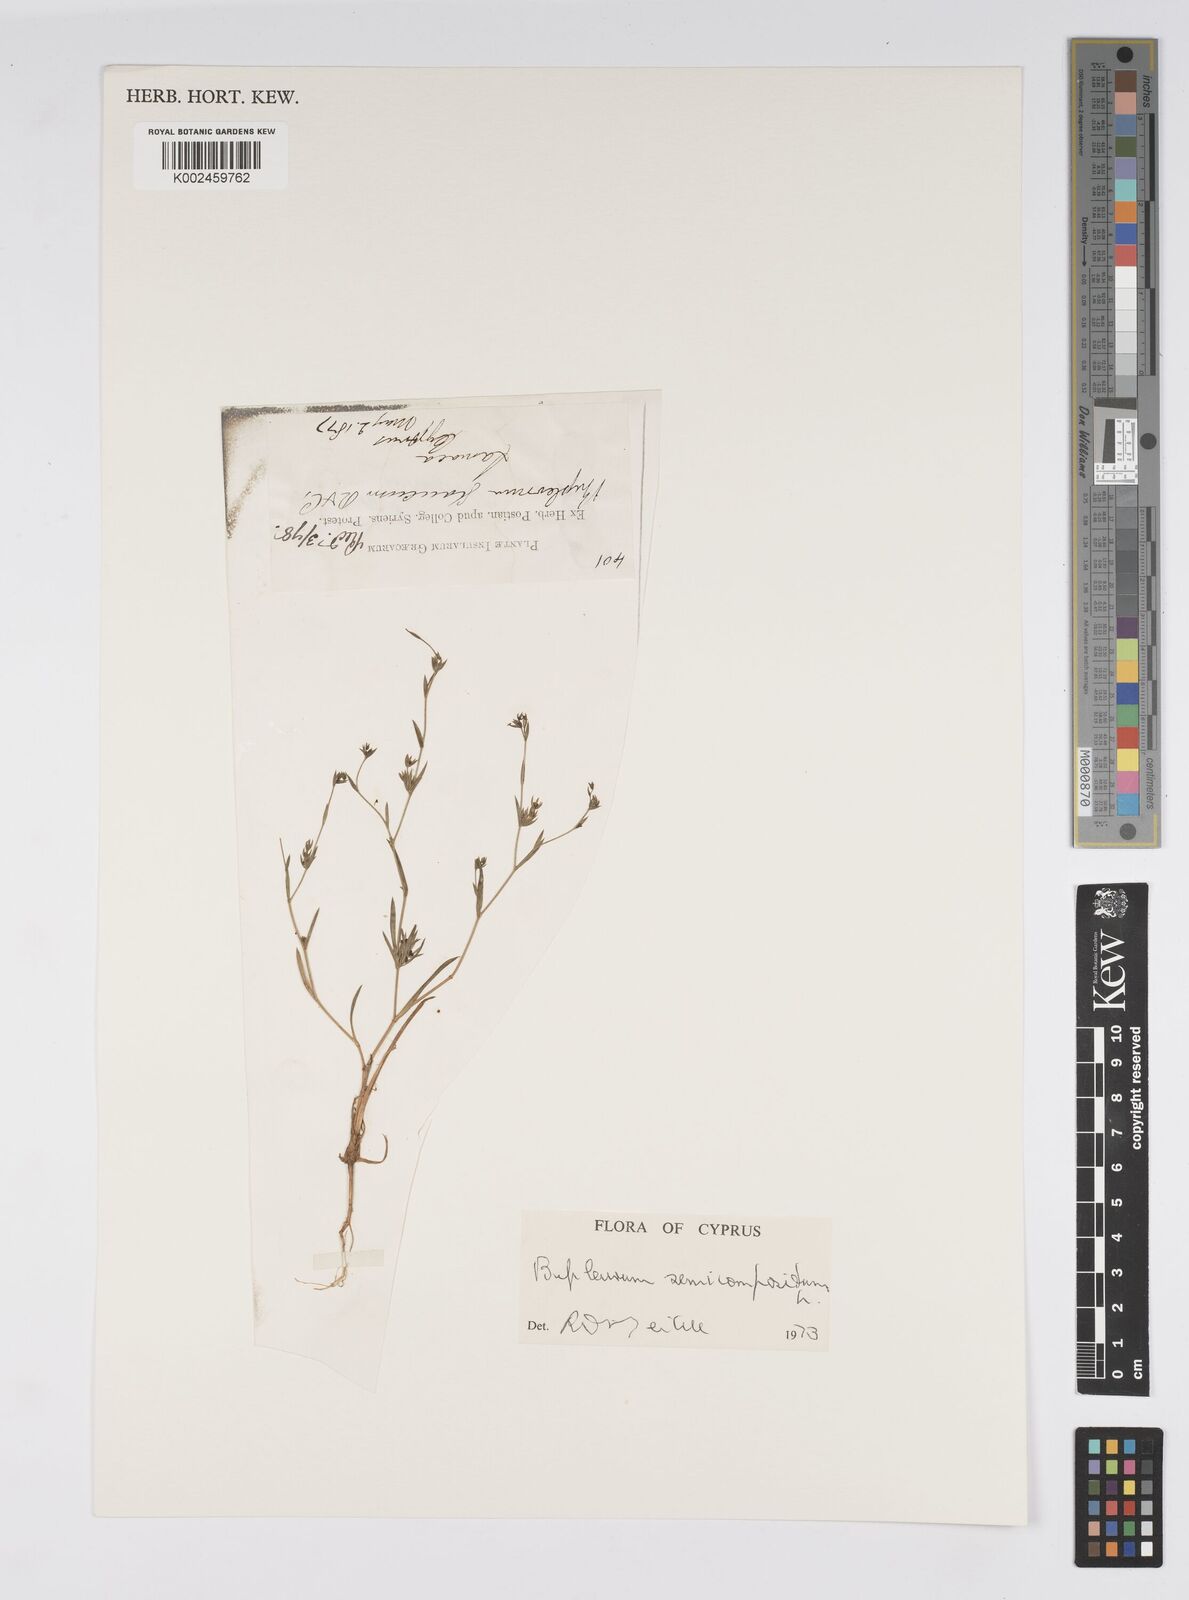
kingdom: Plantae
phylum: Tracheophyta
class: Magnoliopsida
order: Apiales
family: Apiaceae
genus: Bupleurum
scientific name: Bupleurum semicompositum
